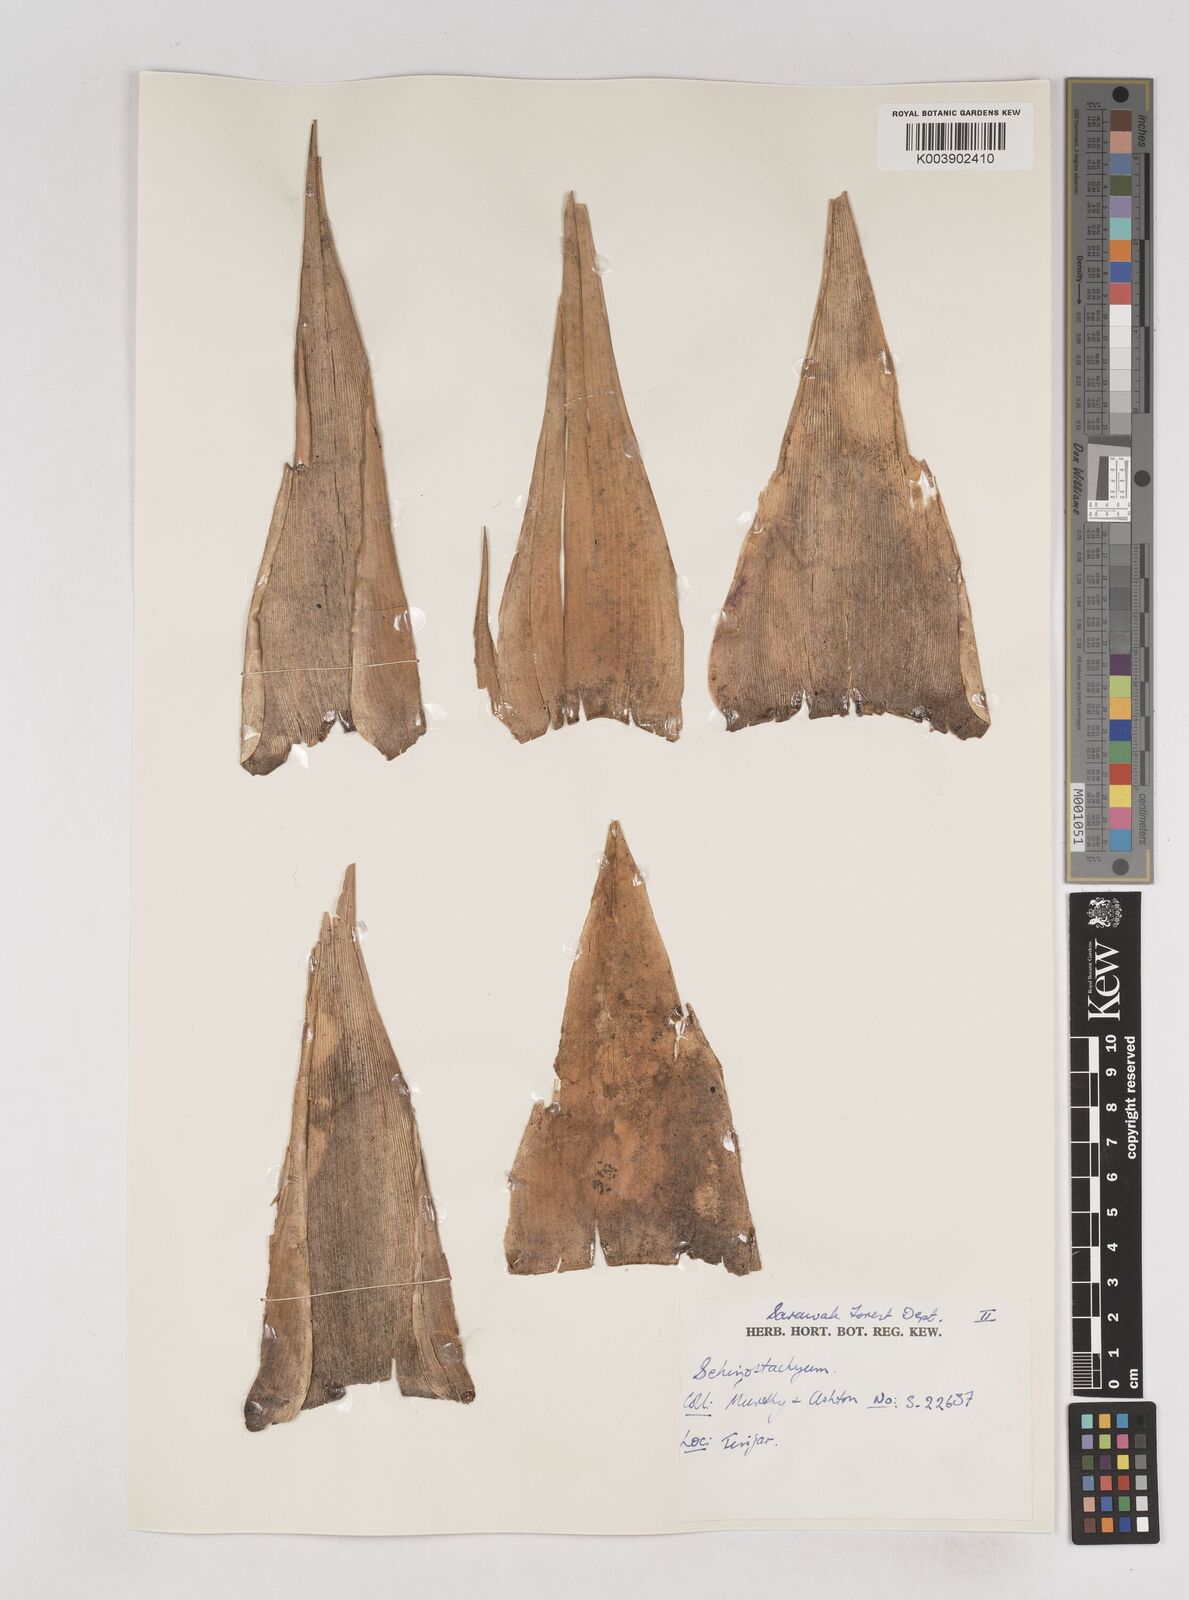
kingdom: Plantae
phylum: Tracheophyta
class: Liliopsida
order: Poales
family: Poaceae
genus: Schizostachyum
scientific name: Schizostachyum
